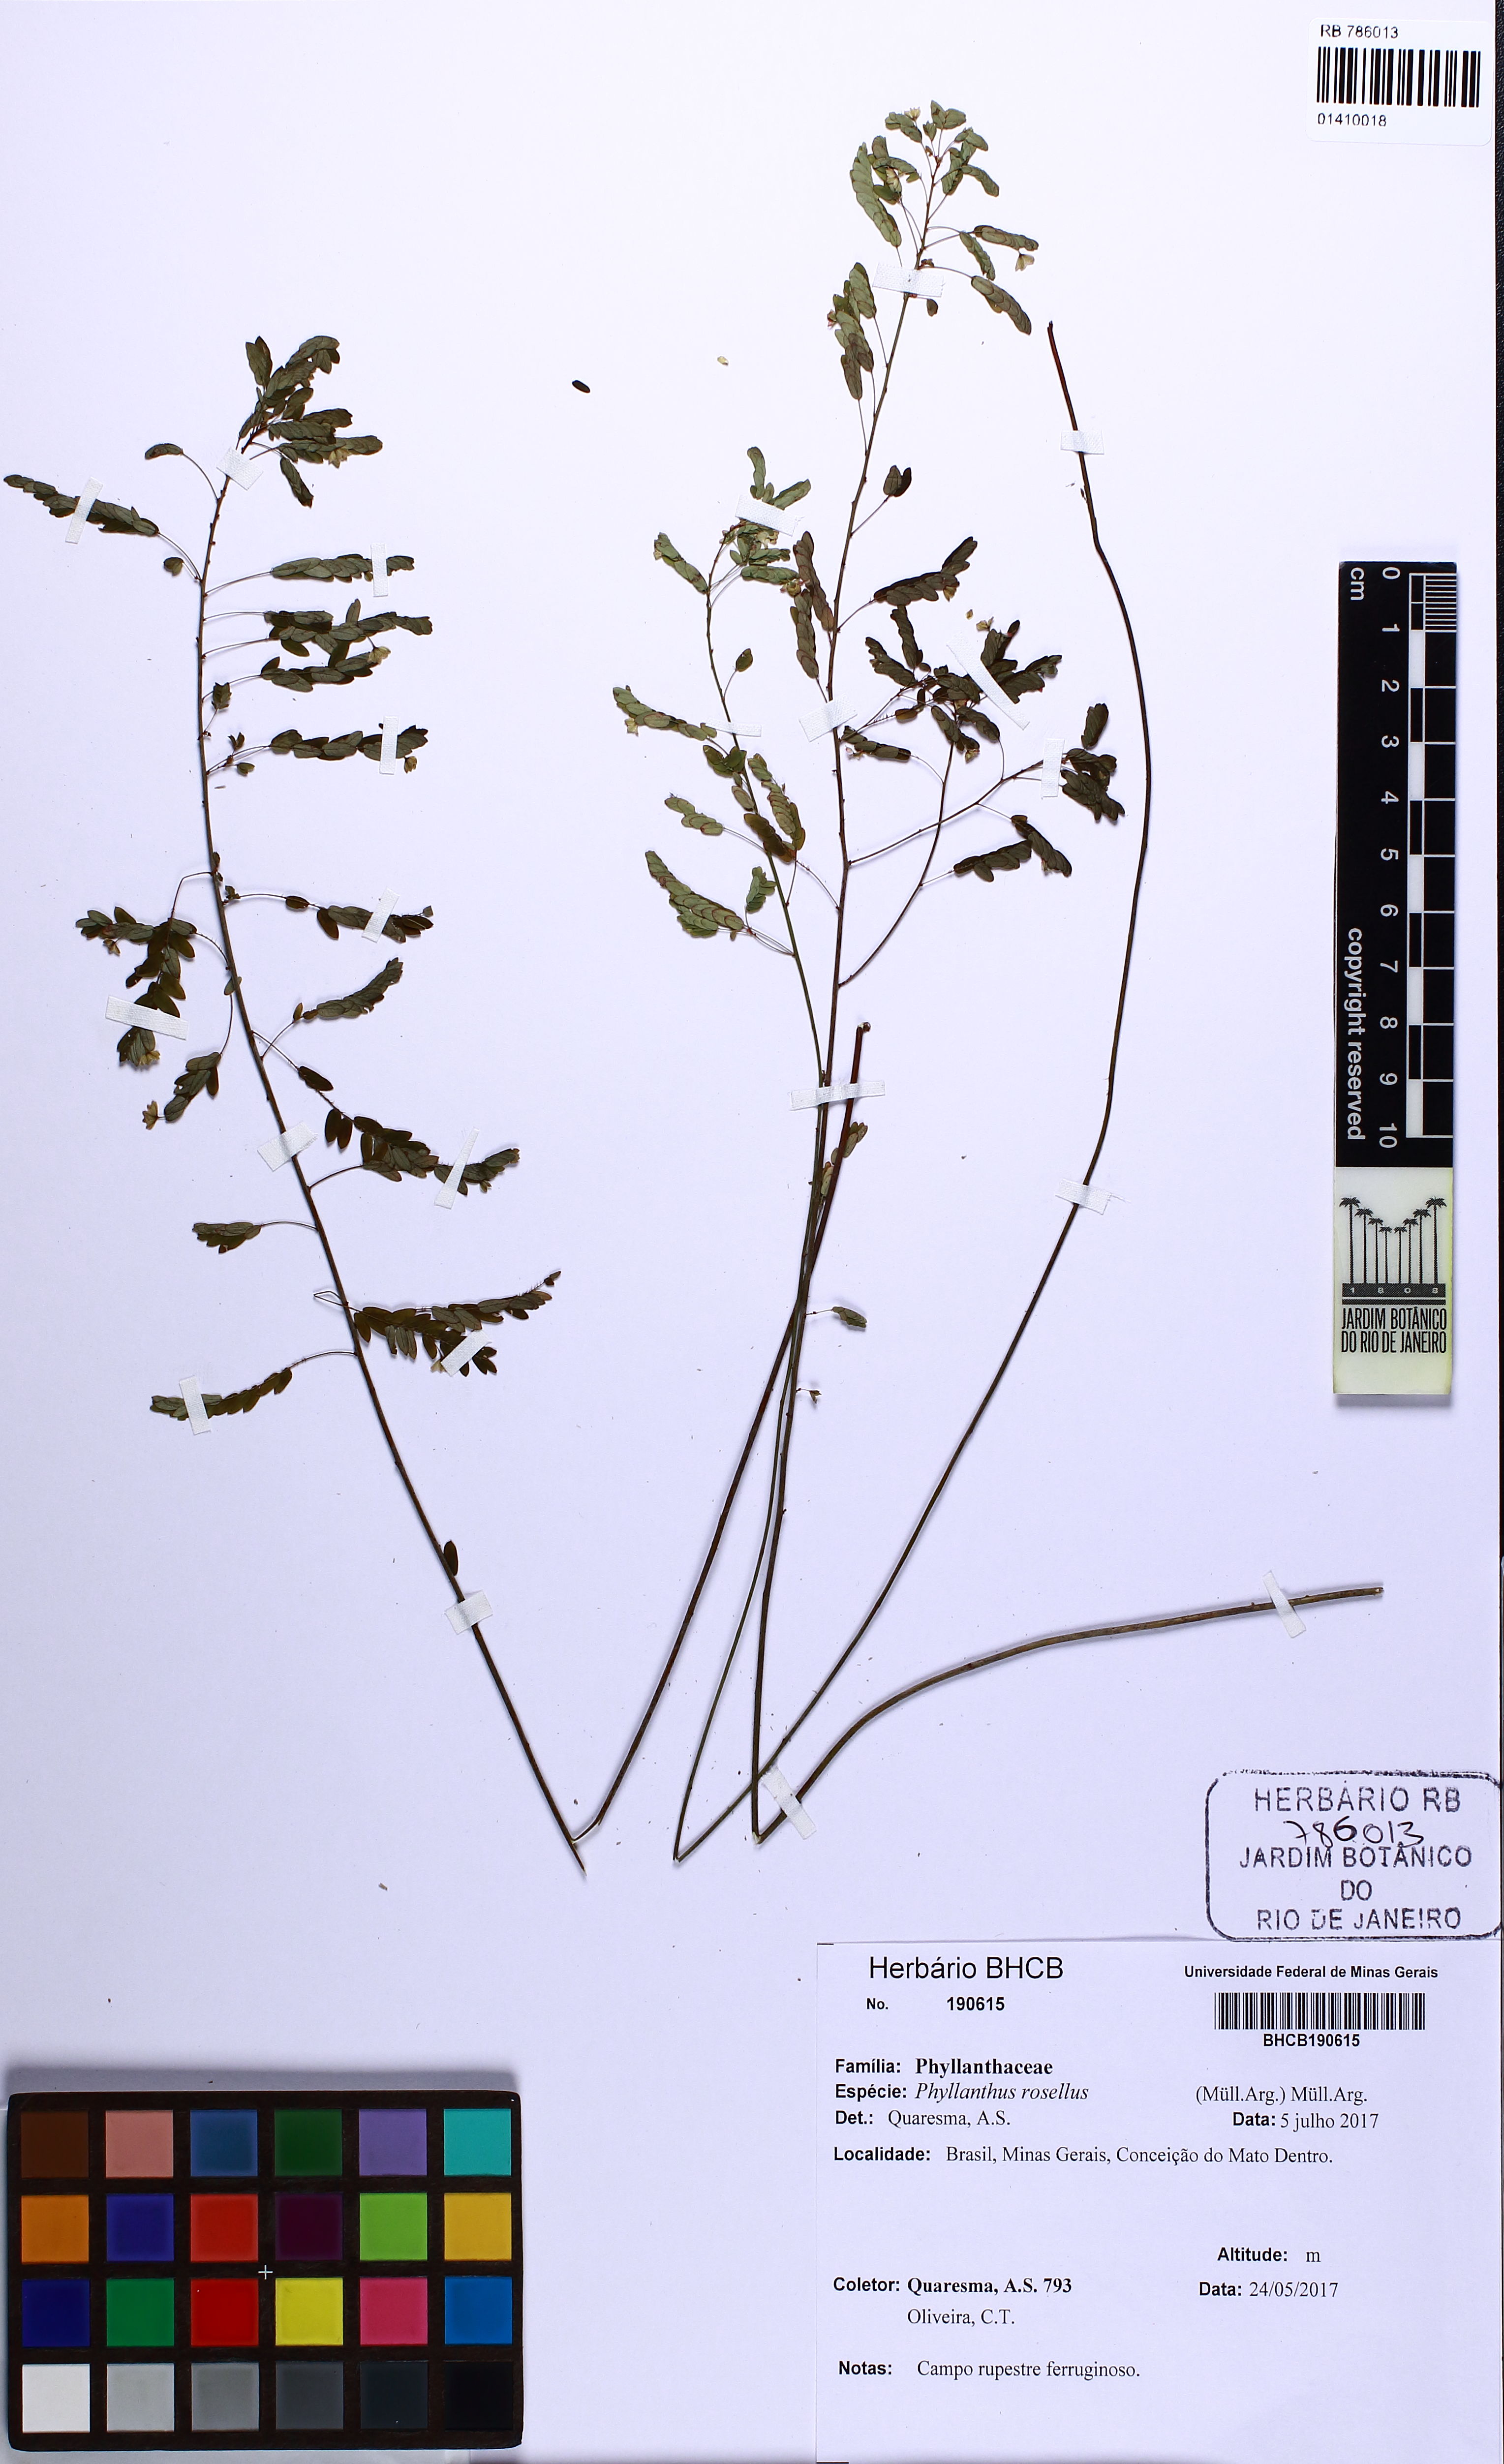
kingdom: Plantae
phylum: Tracheophyta
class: Magnoliopsida
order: Malpighiales
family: Phyllanthaceae
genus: Phyllanthus
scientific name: Phyllanthus niruri
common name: Niruri
